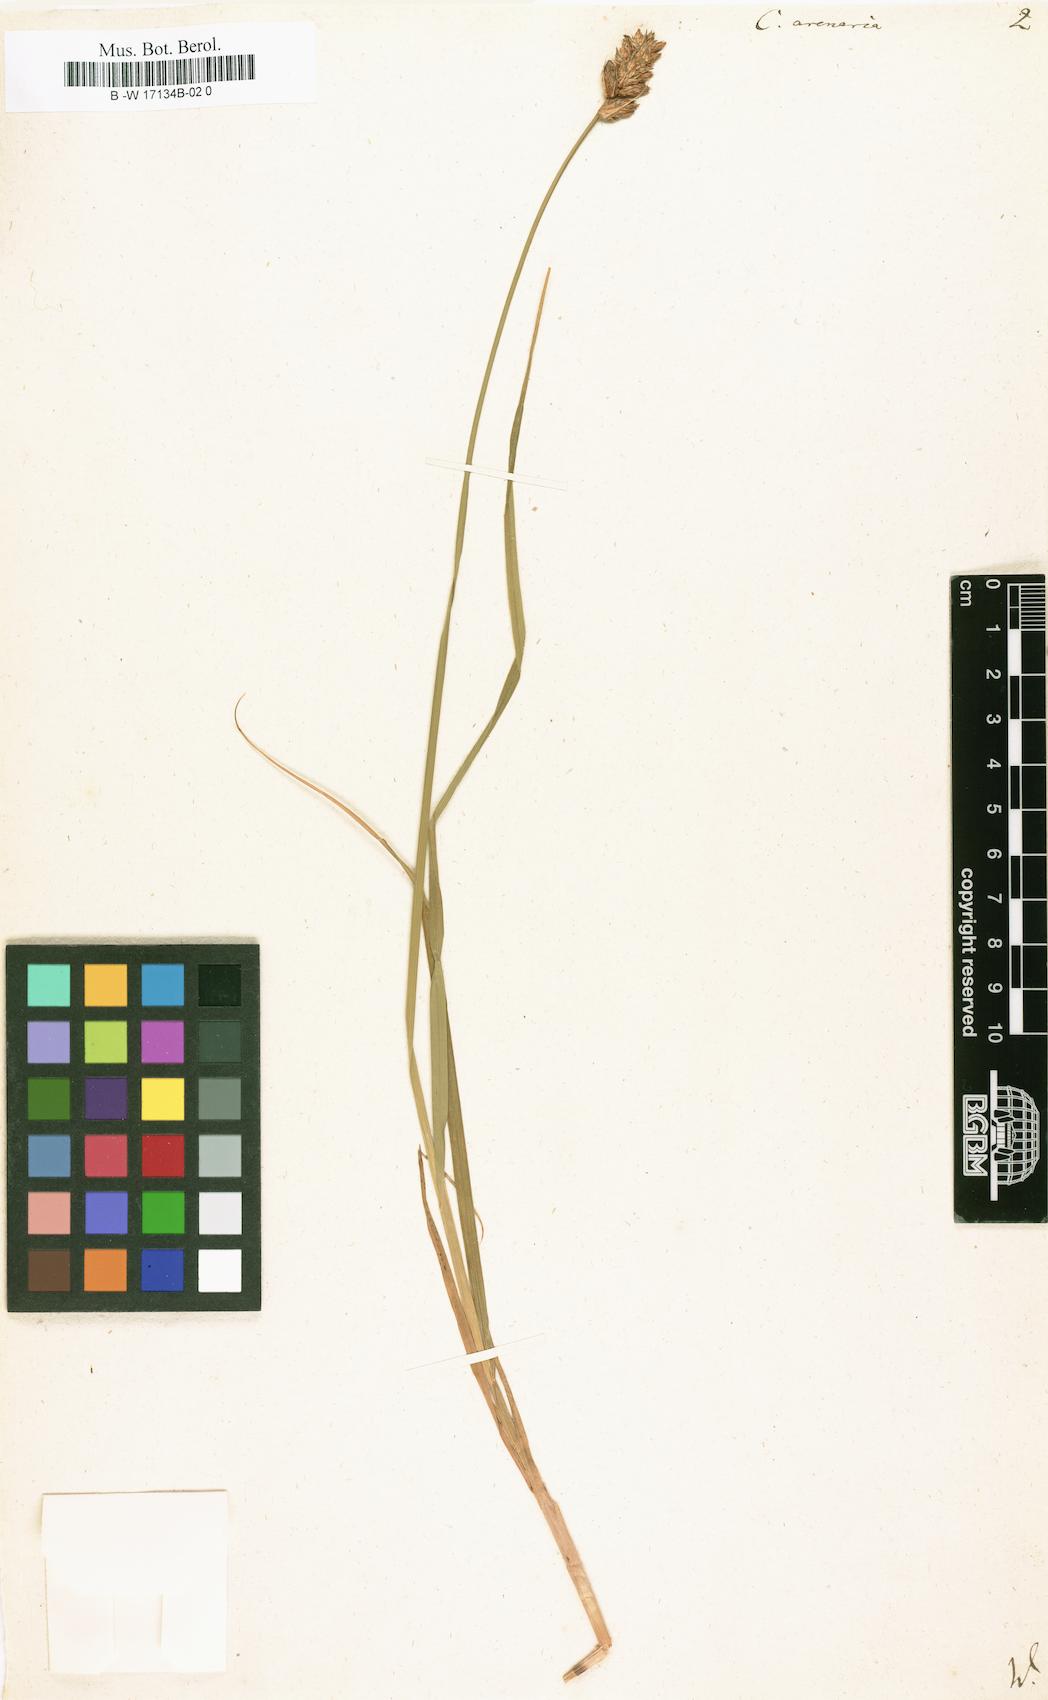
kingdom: Plantae
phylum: Tracheophyta
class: Liliopsida
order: Poales
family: Cyperaceae
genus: Carex
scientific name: Carex arenaria
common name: Sand sedge
